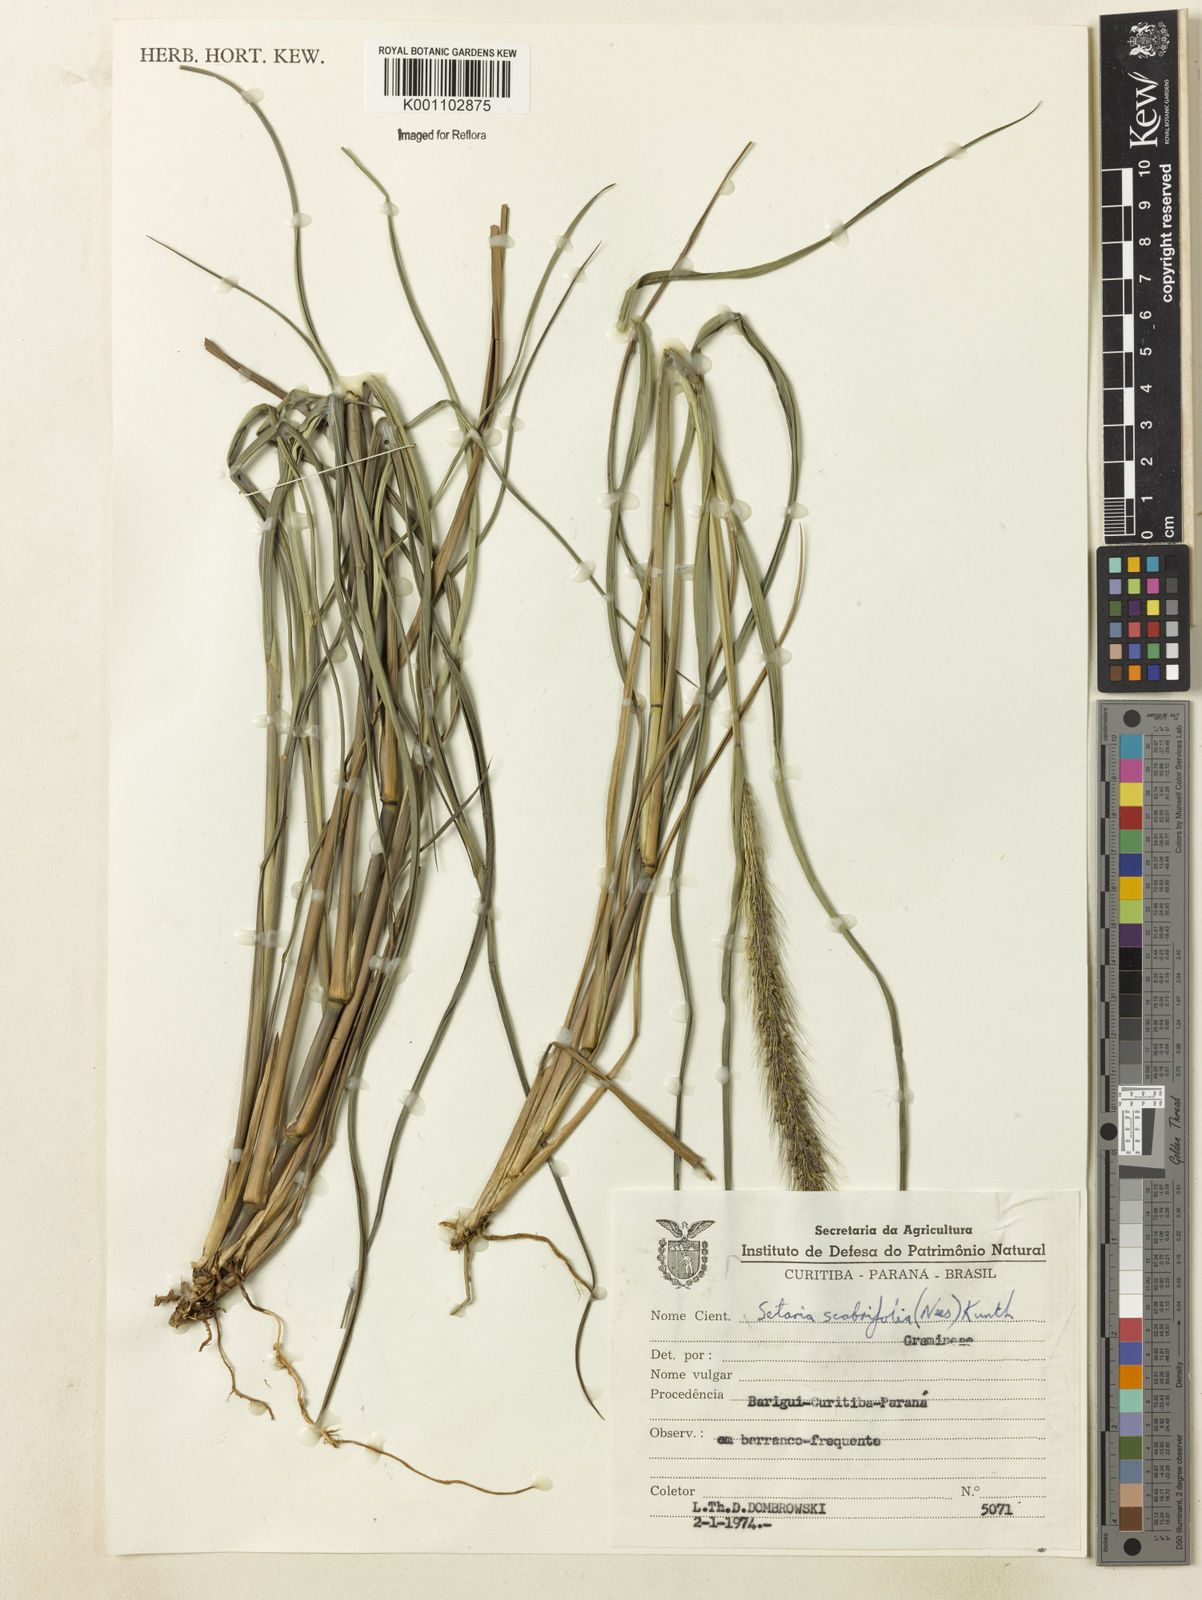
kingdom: Plantae
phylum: Tracheophyta
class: Liliopsida
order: Poales
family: Poaceae
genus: Setaria
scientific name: Setaria scabrifolia
